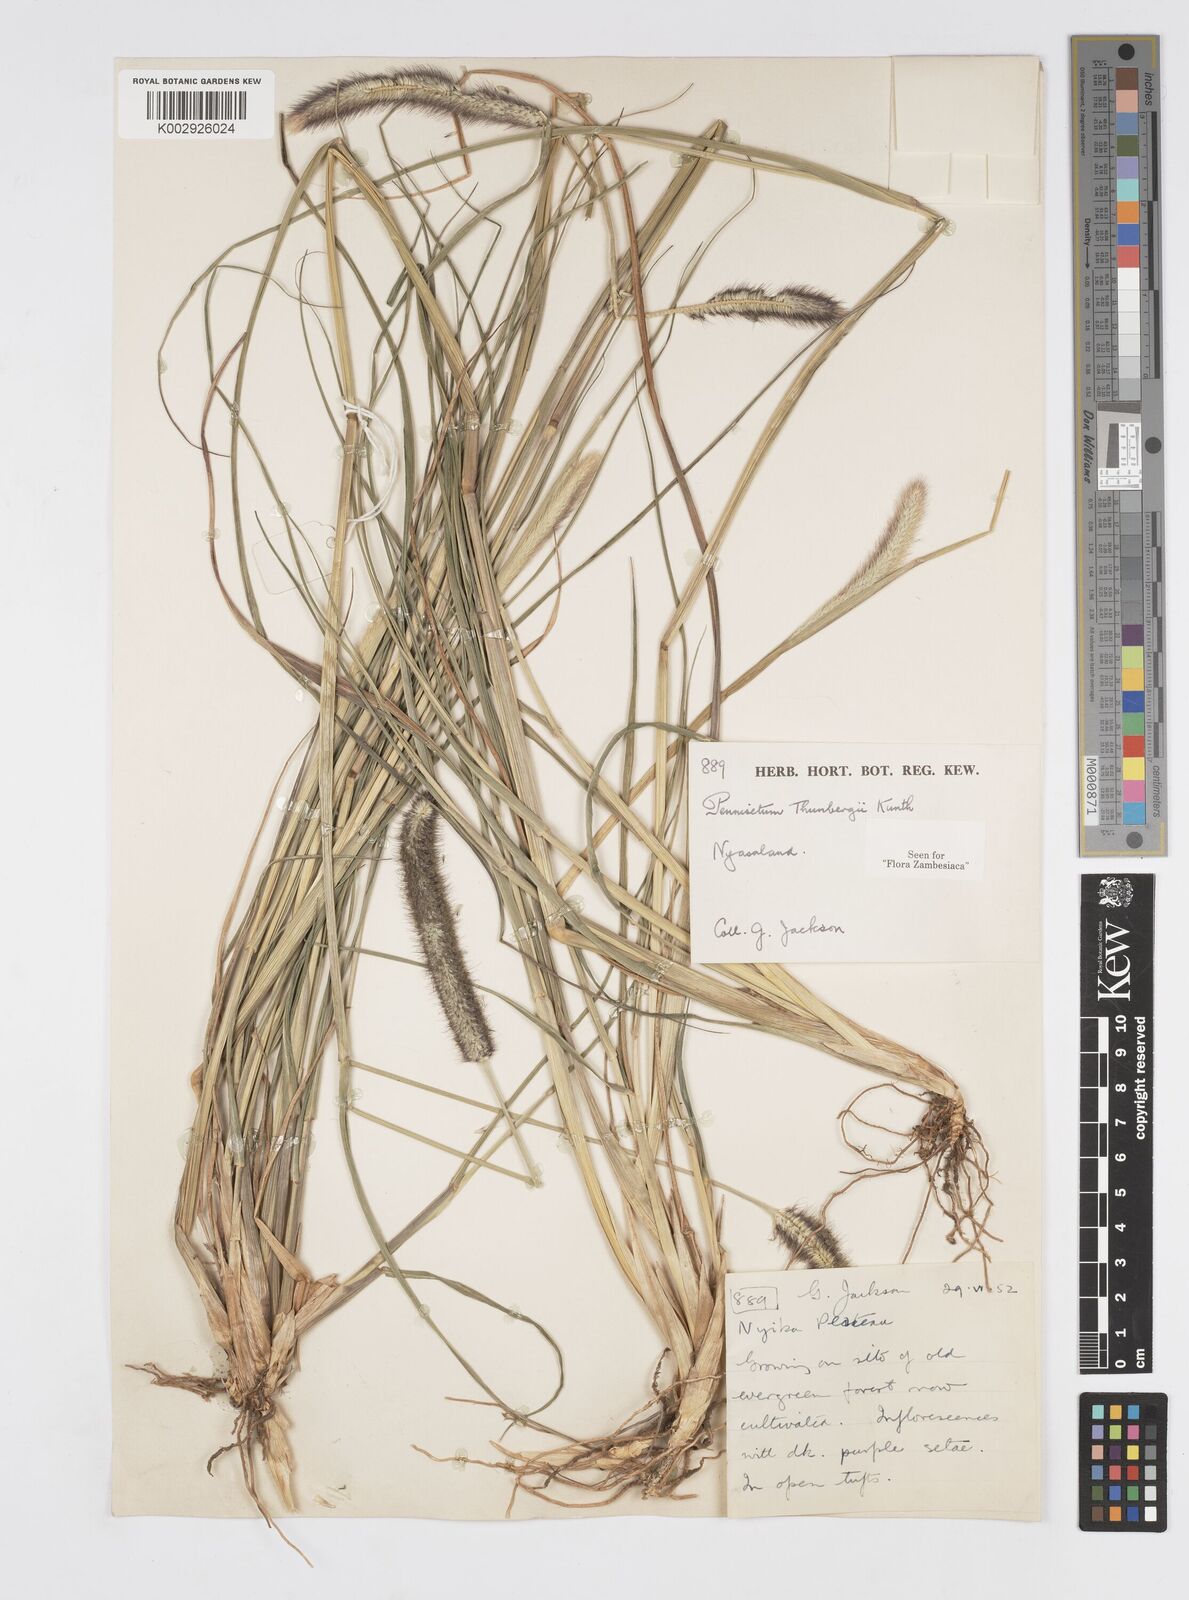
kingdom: Plantae
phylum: Tracheophyta
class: Liliopsida
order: Poales
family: Poaceae
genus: Cenchrus
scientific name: Cenchrus geniculatus
